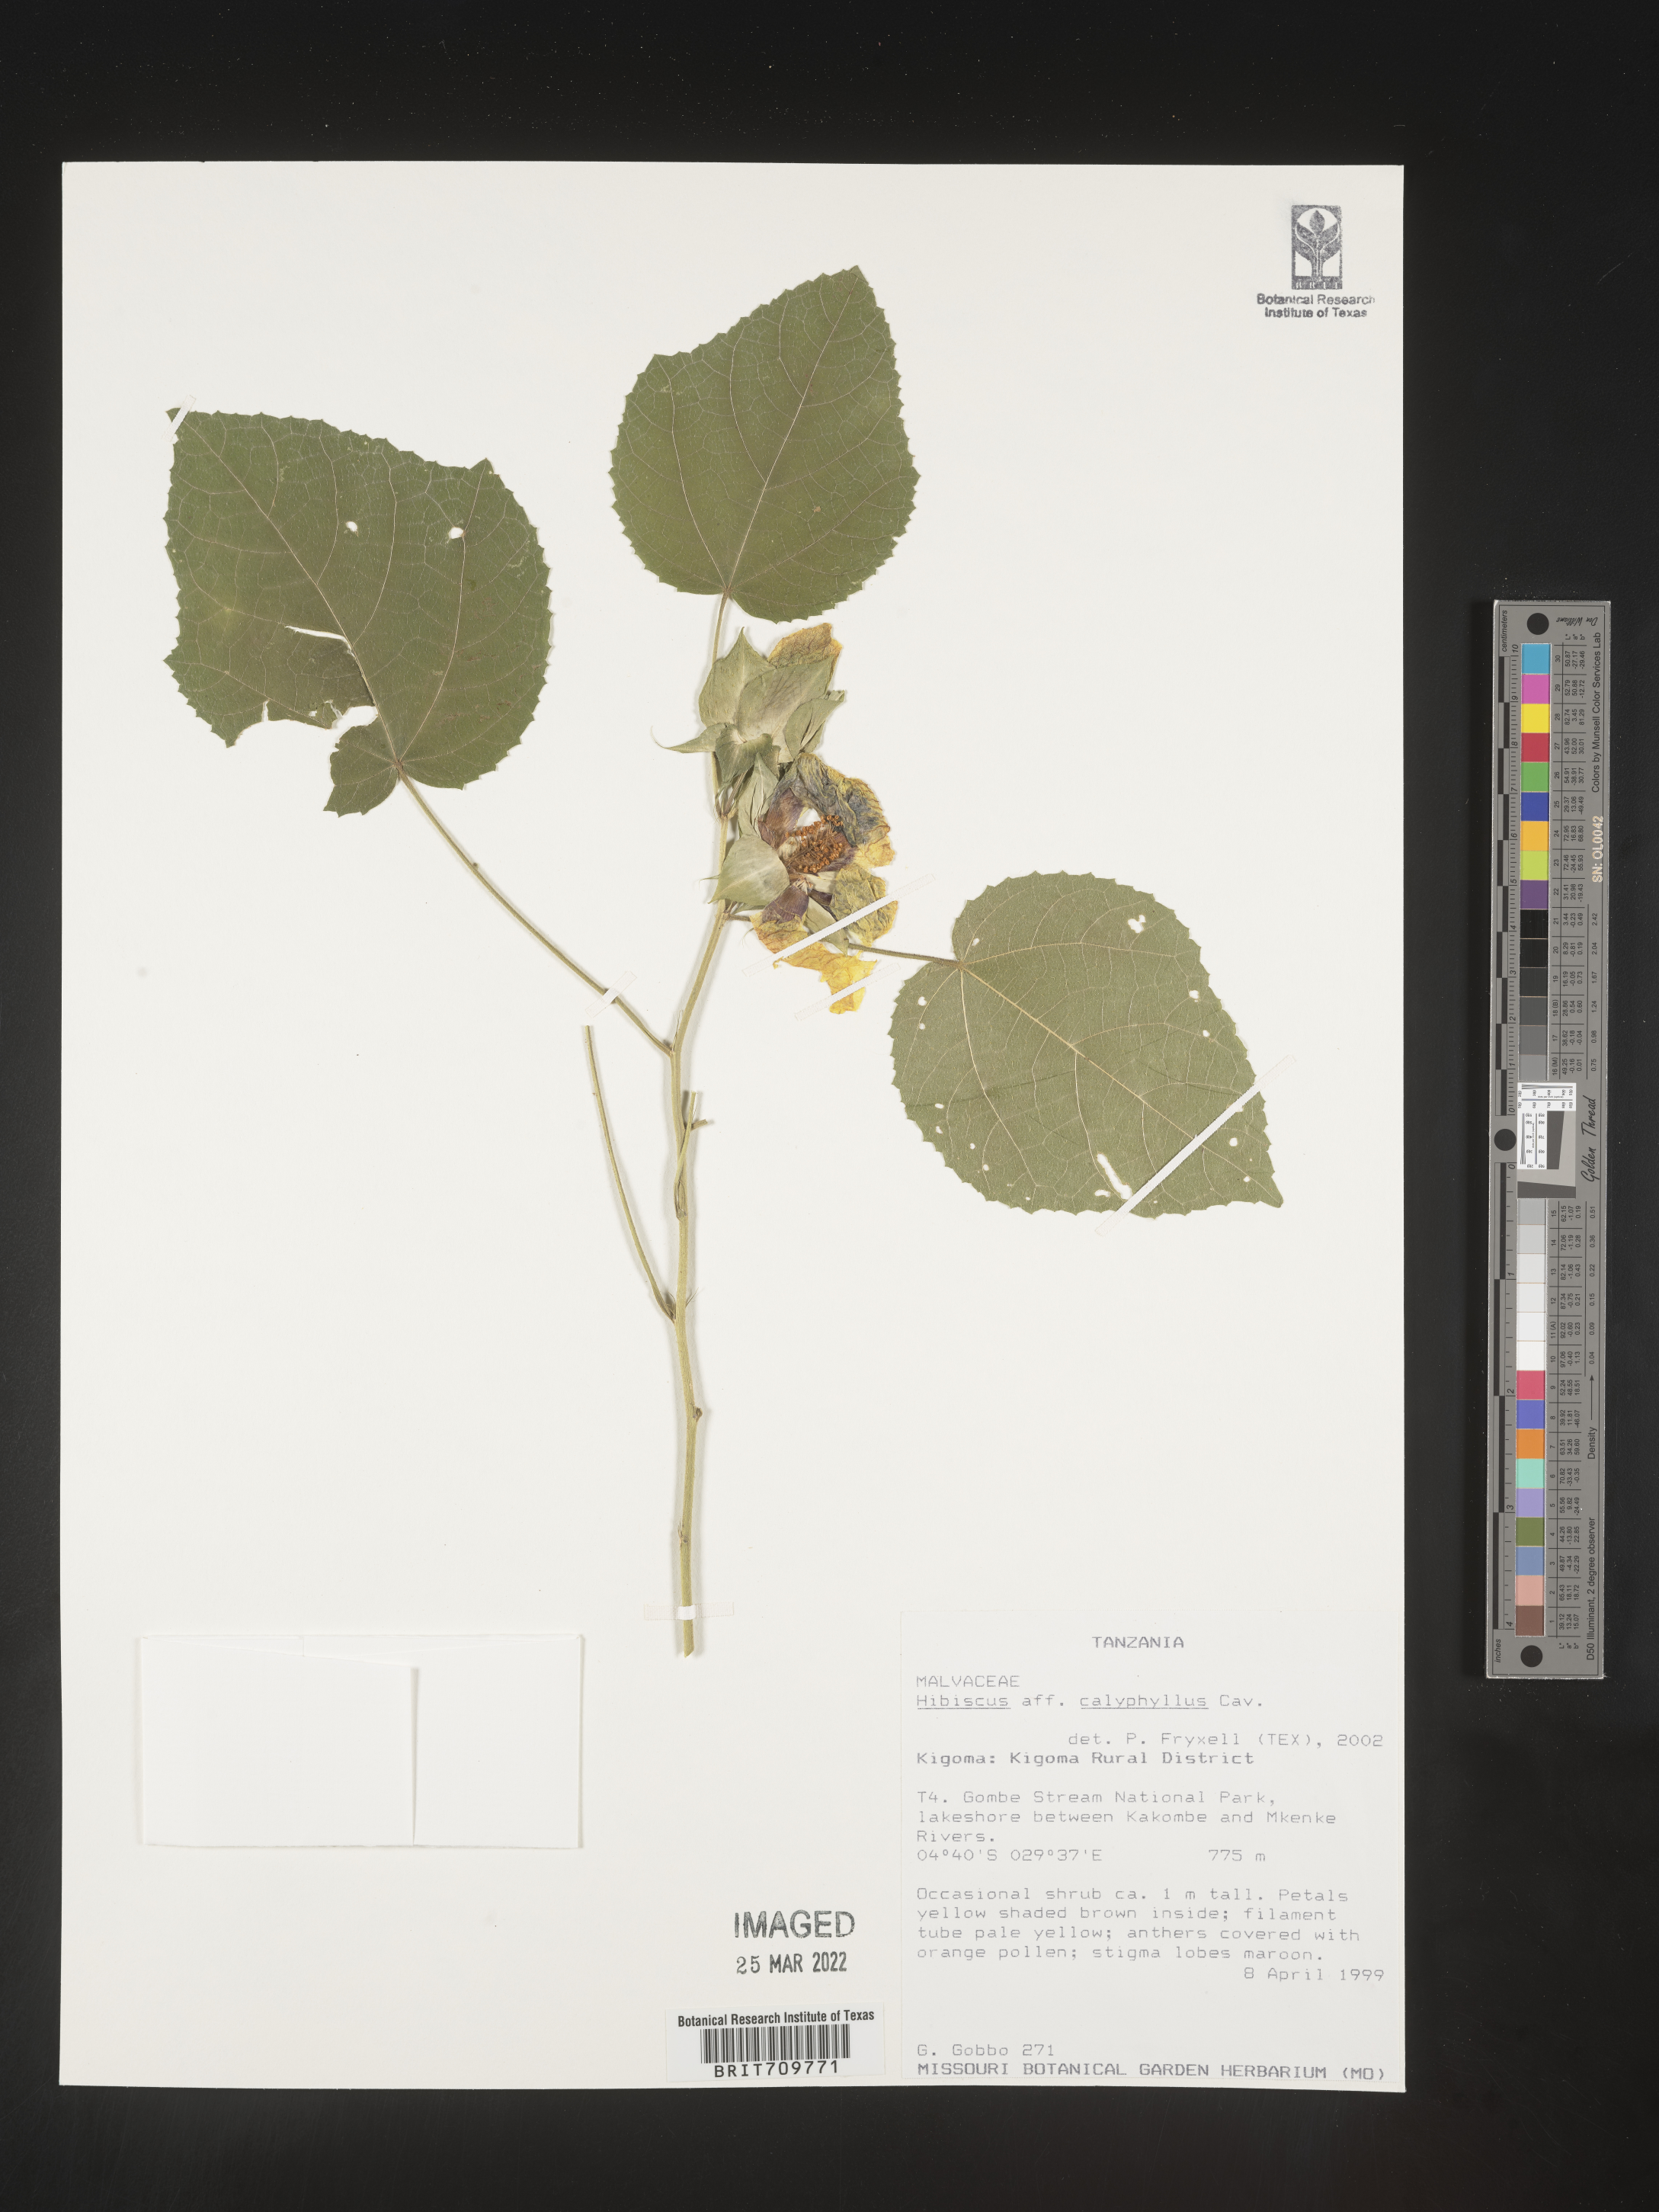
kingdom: Plantae
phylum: Tracheophyta
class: Magnoliopsida
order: Malvales
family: Malvaceae
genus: Hibiscus
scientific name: Hibiscus
